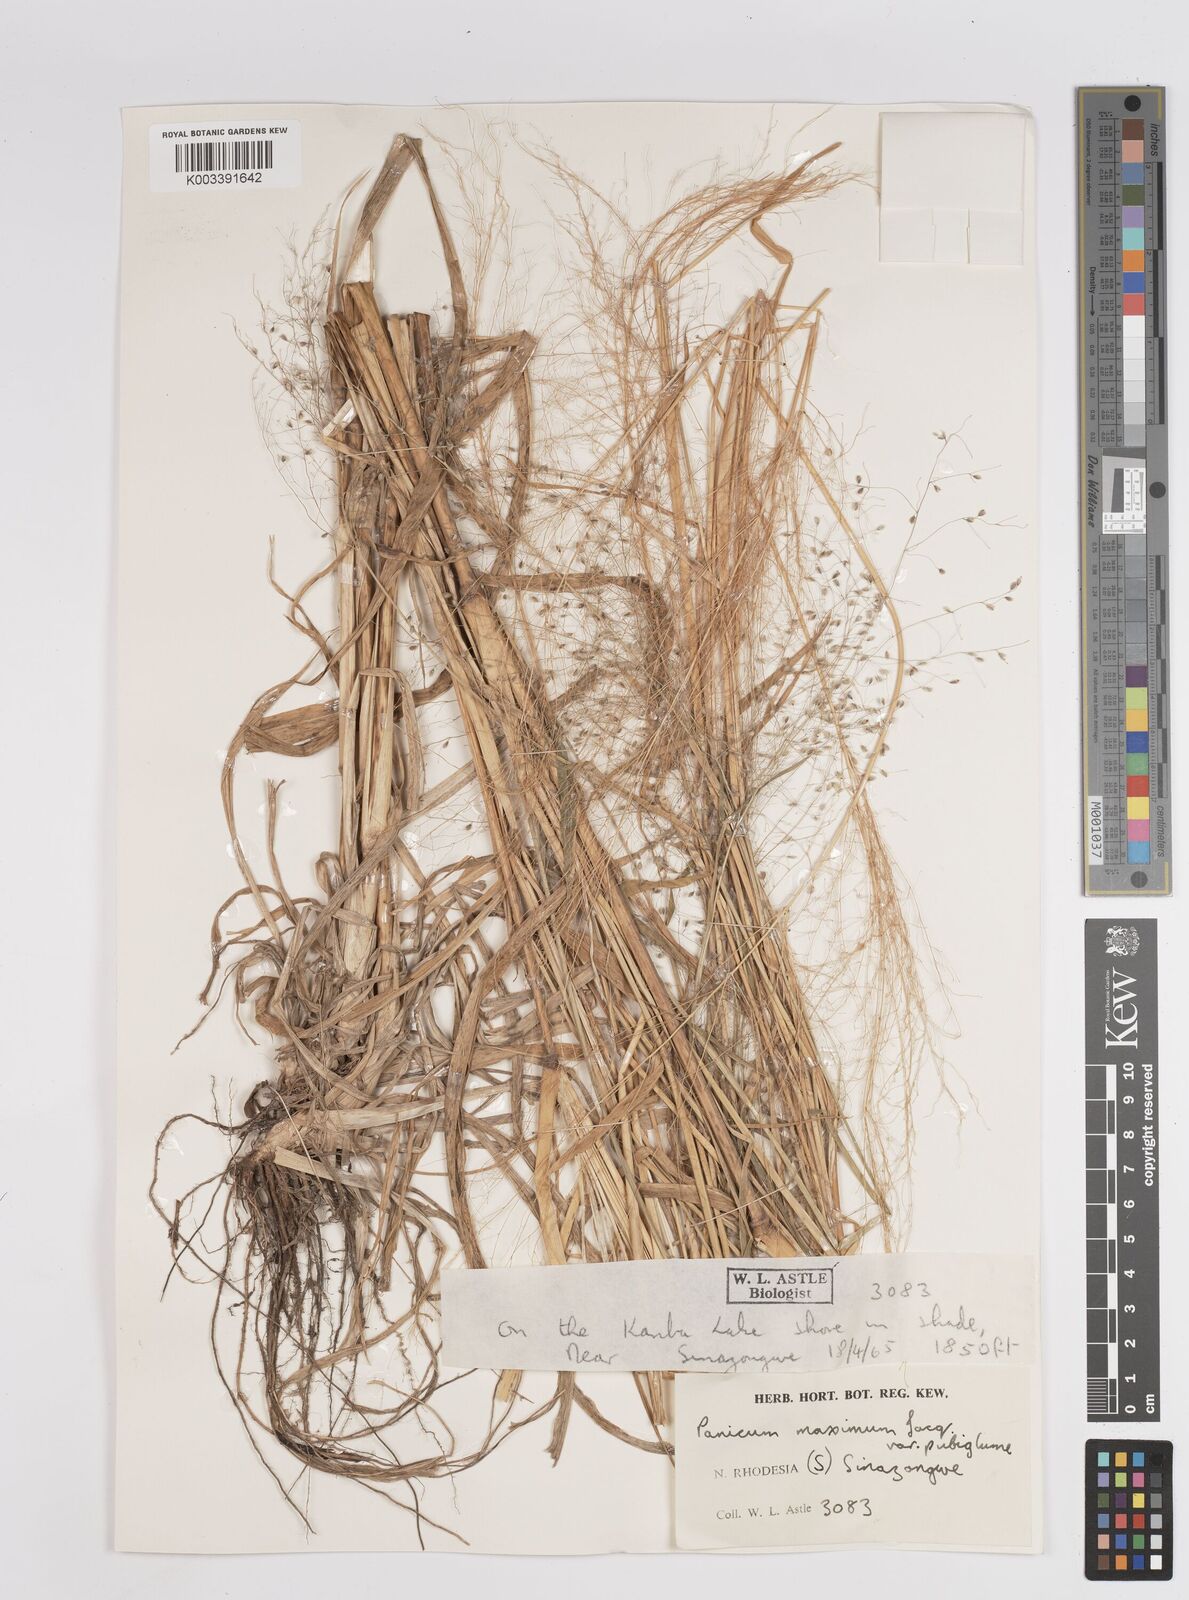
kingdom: Plantae
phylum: Tracheophyta
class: Liliopsida
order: Poales
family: Poaceae
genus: Megathyrsus
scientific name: Megathyrsus maximus
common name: Guineagrass
